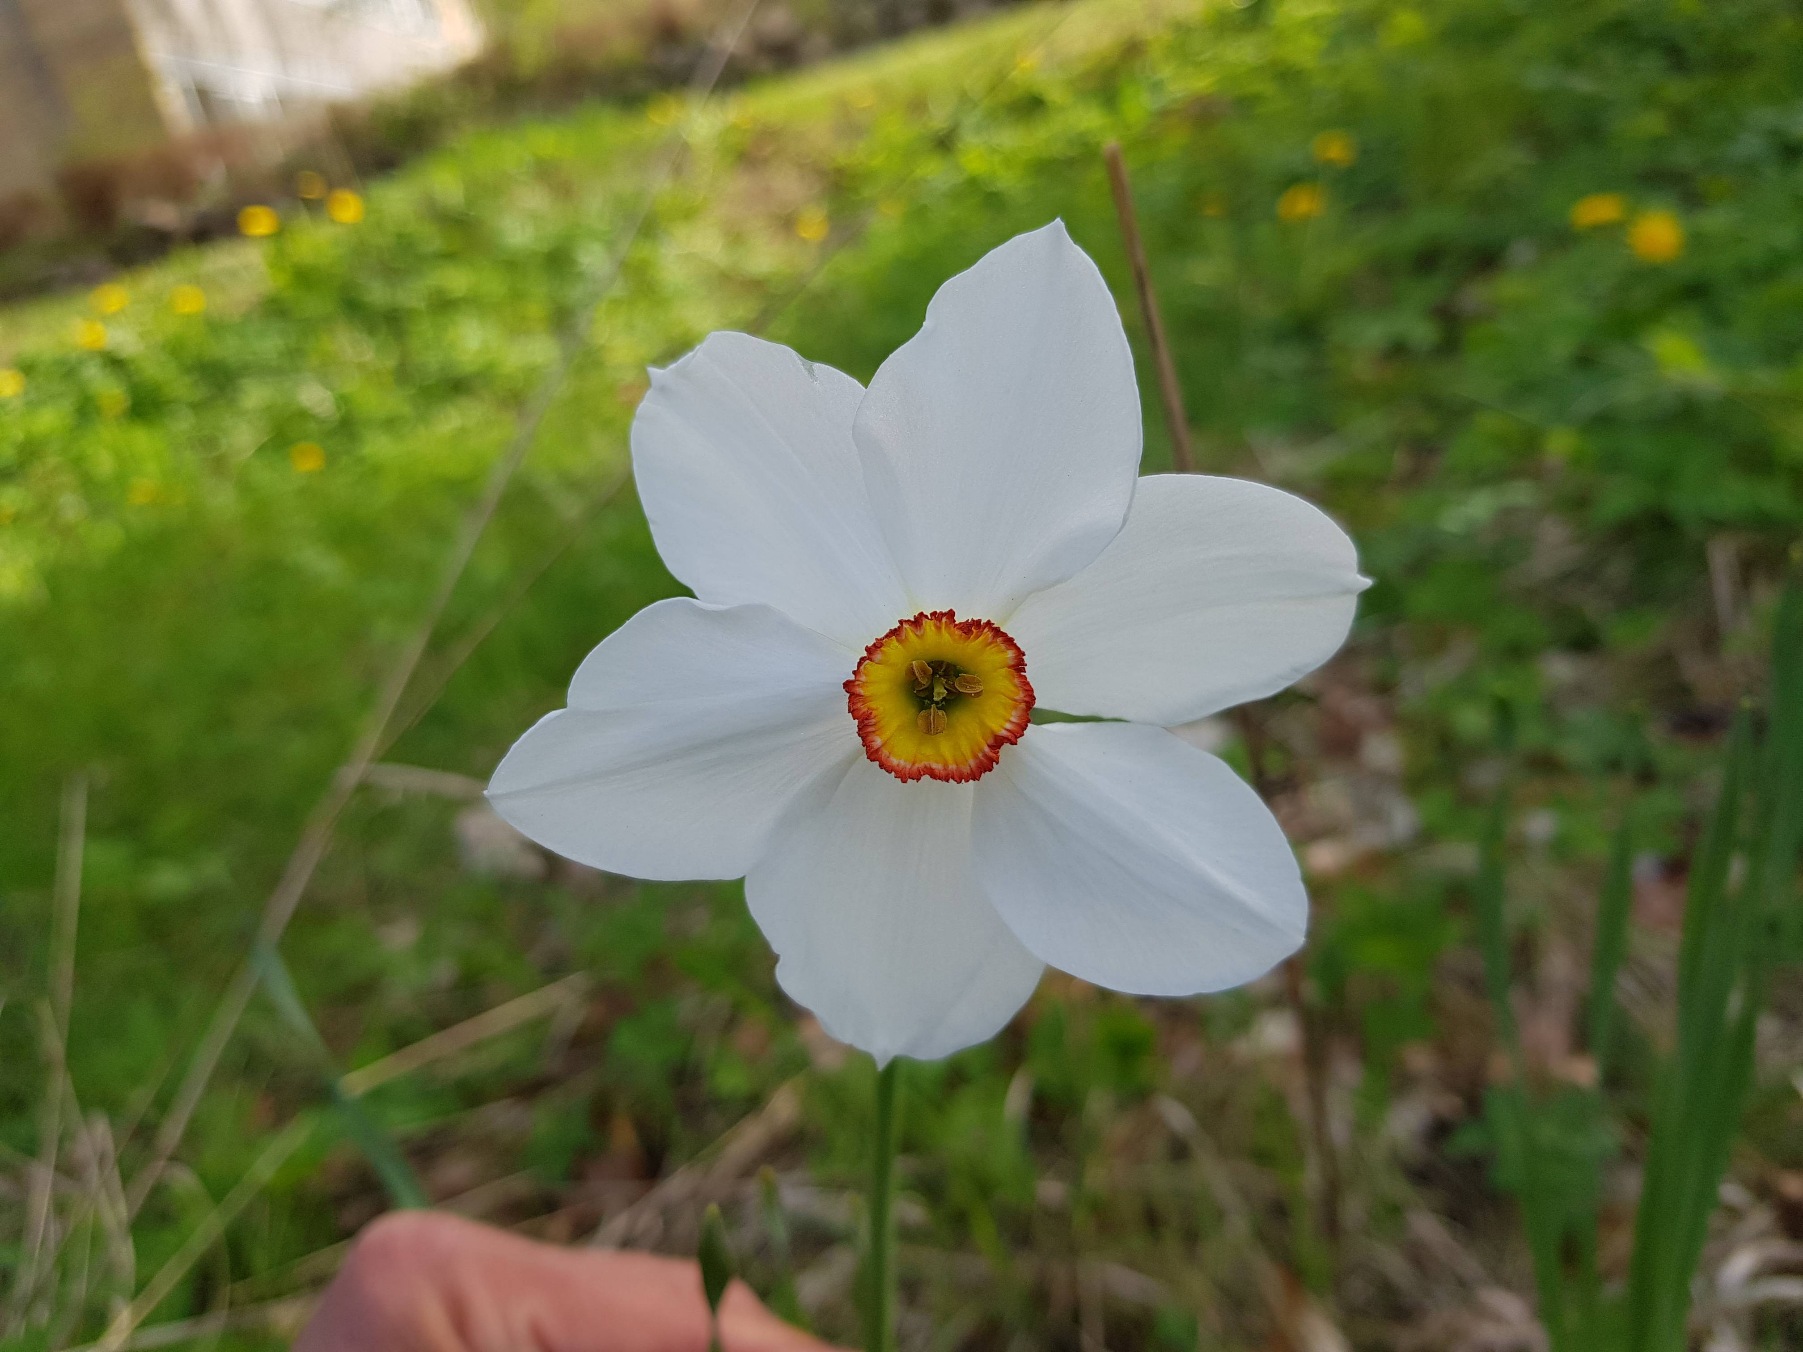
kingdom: Plantae
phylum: Tracheophyta
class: Liliopsida
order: Asparagales
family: Amaryllidaceae
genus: Narcissus
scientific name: Narcissus poeticus
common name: Pinselilje
